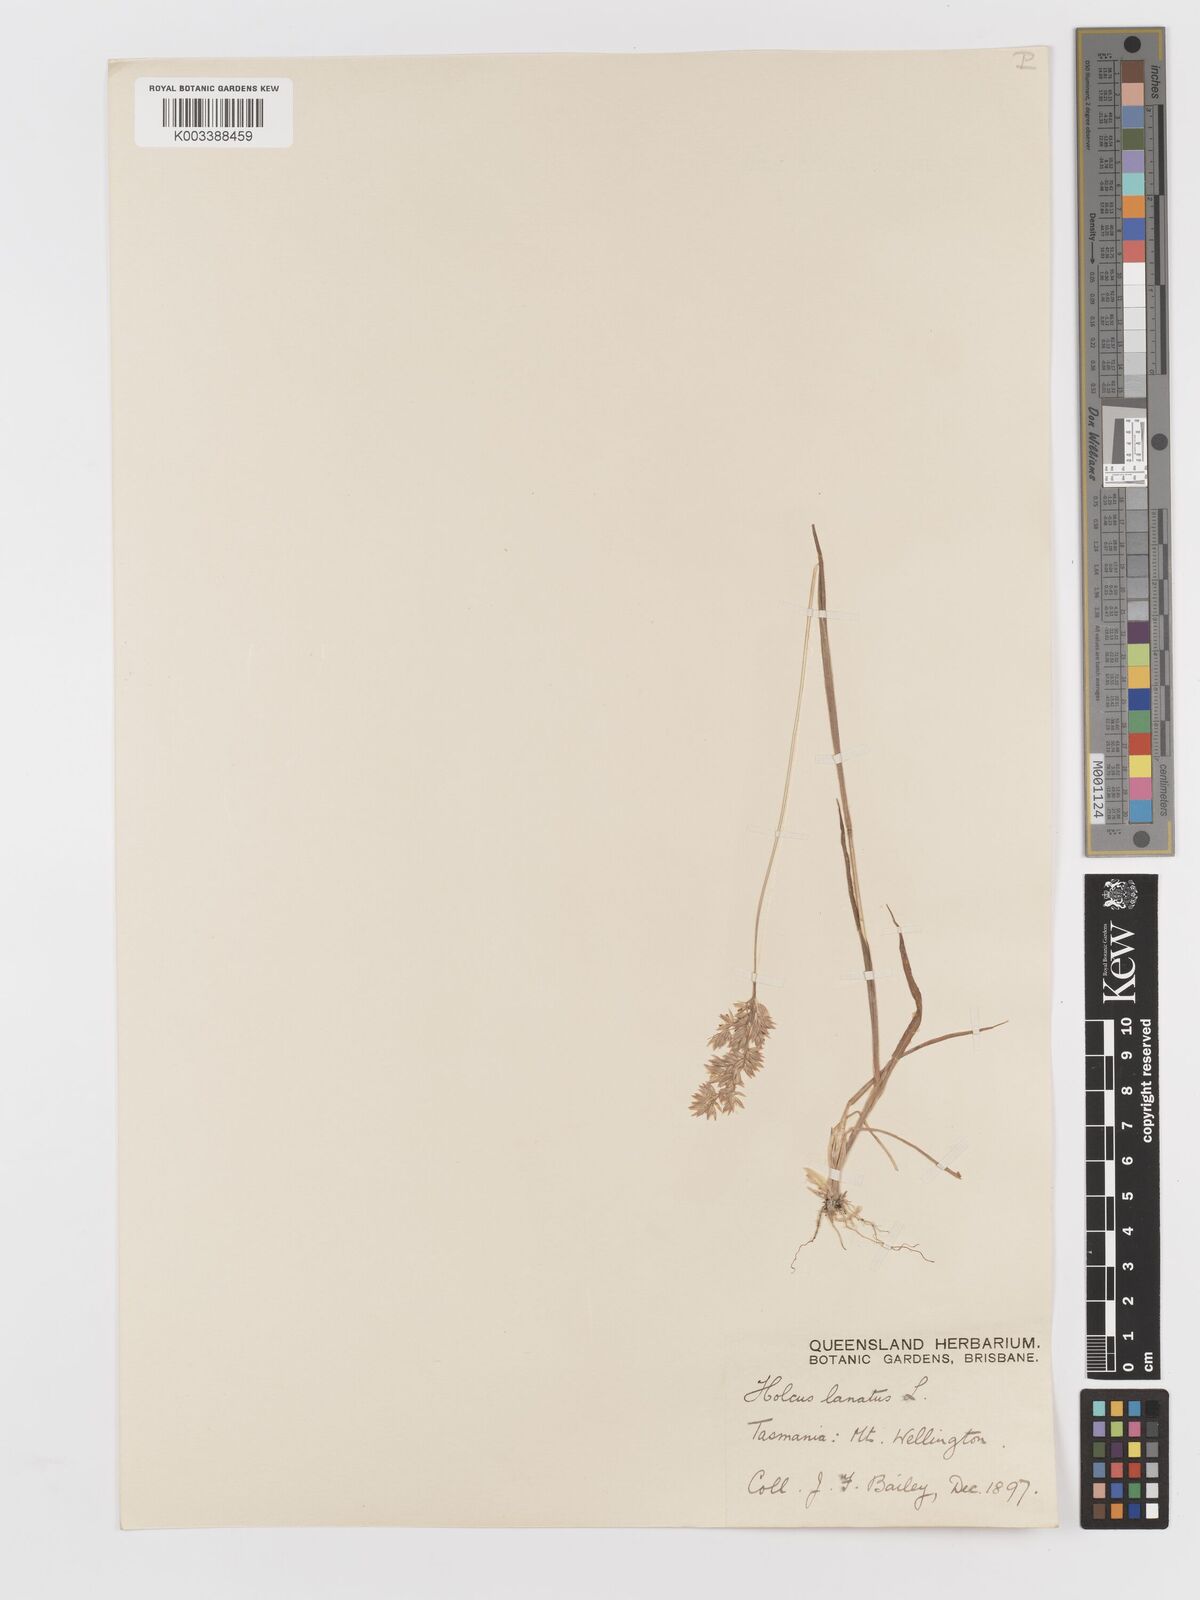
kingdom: Plantae
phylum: Tracheophyta
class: Liliopsida
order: Poales
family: Poaceae
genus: Holcus
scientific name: Holcus lanatus
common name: Yorkshire-fog
